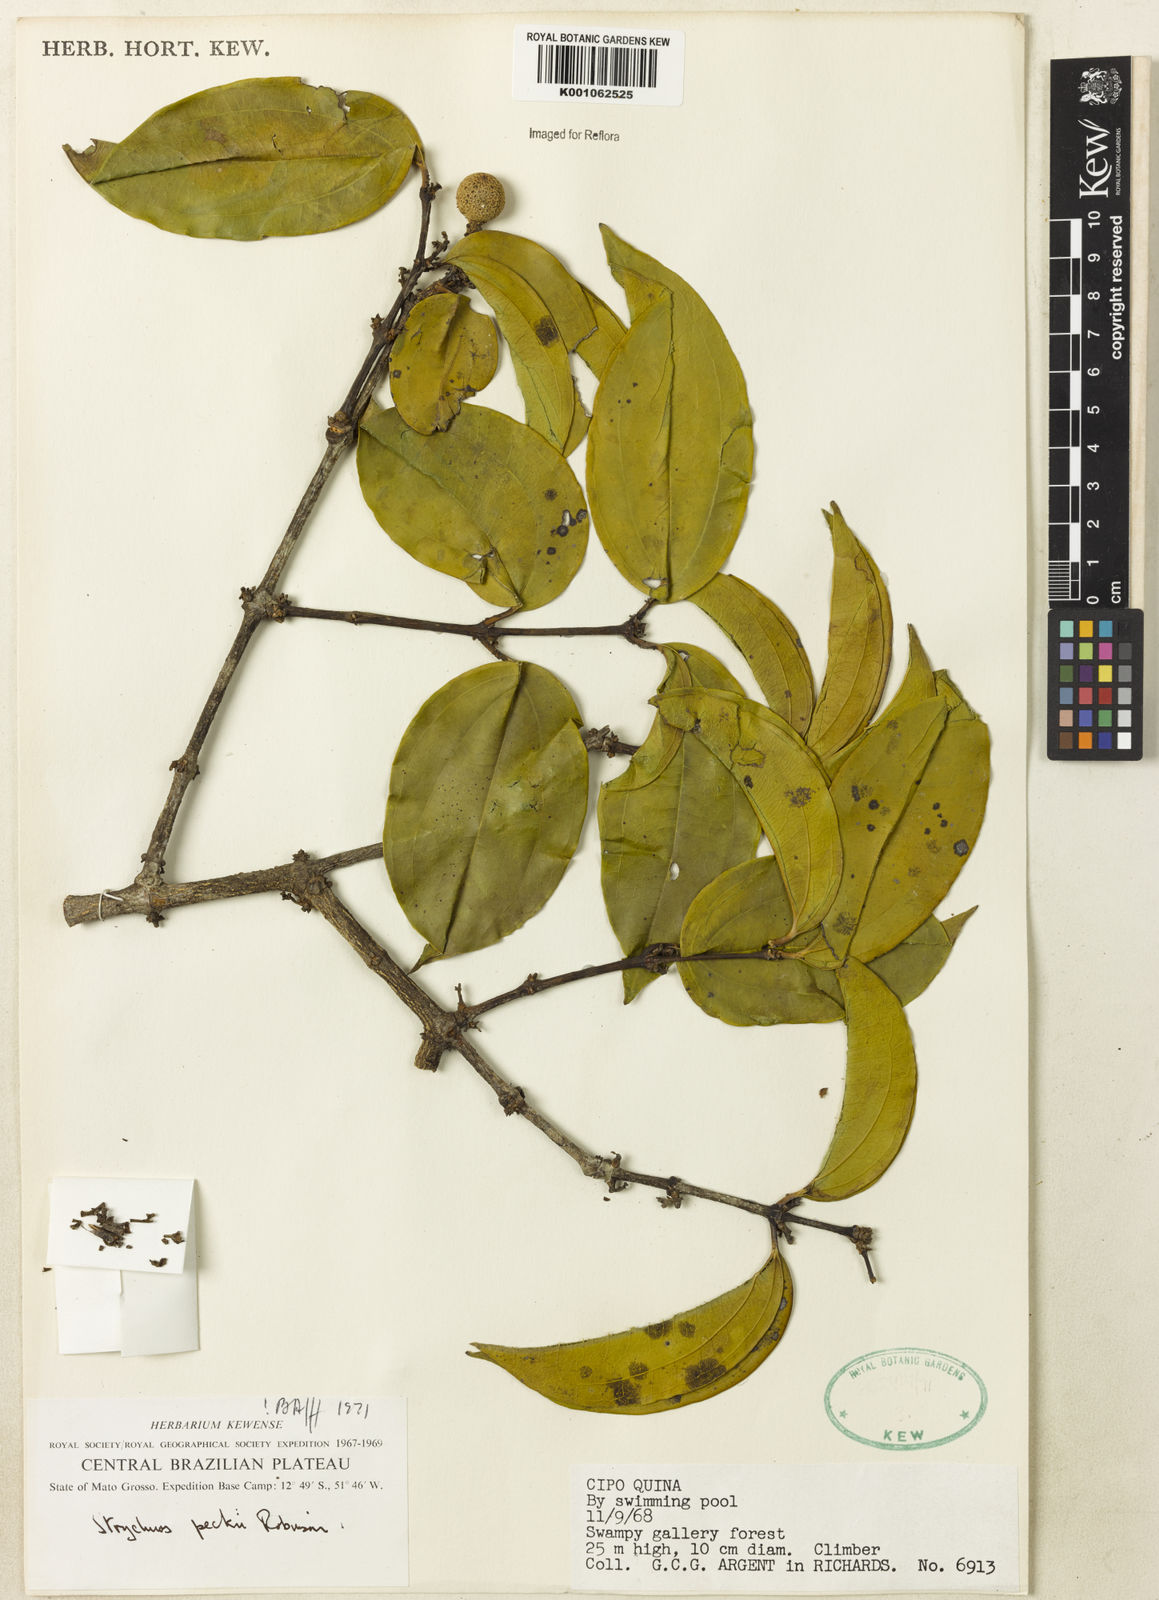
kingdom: Plantae
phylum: Tracheophyta
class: Magnoliopsida
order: Gentianales
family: Loganiaceae
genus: Strychnos
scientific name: Strychnos peckii
